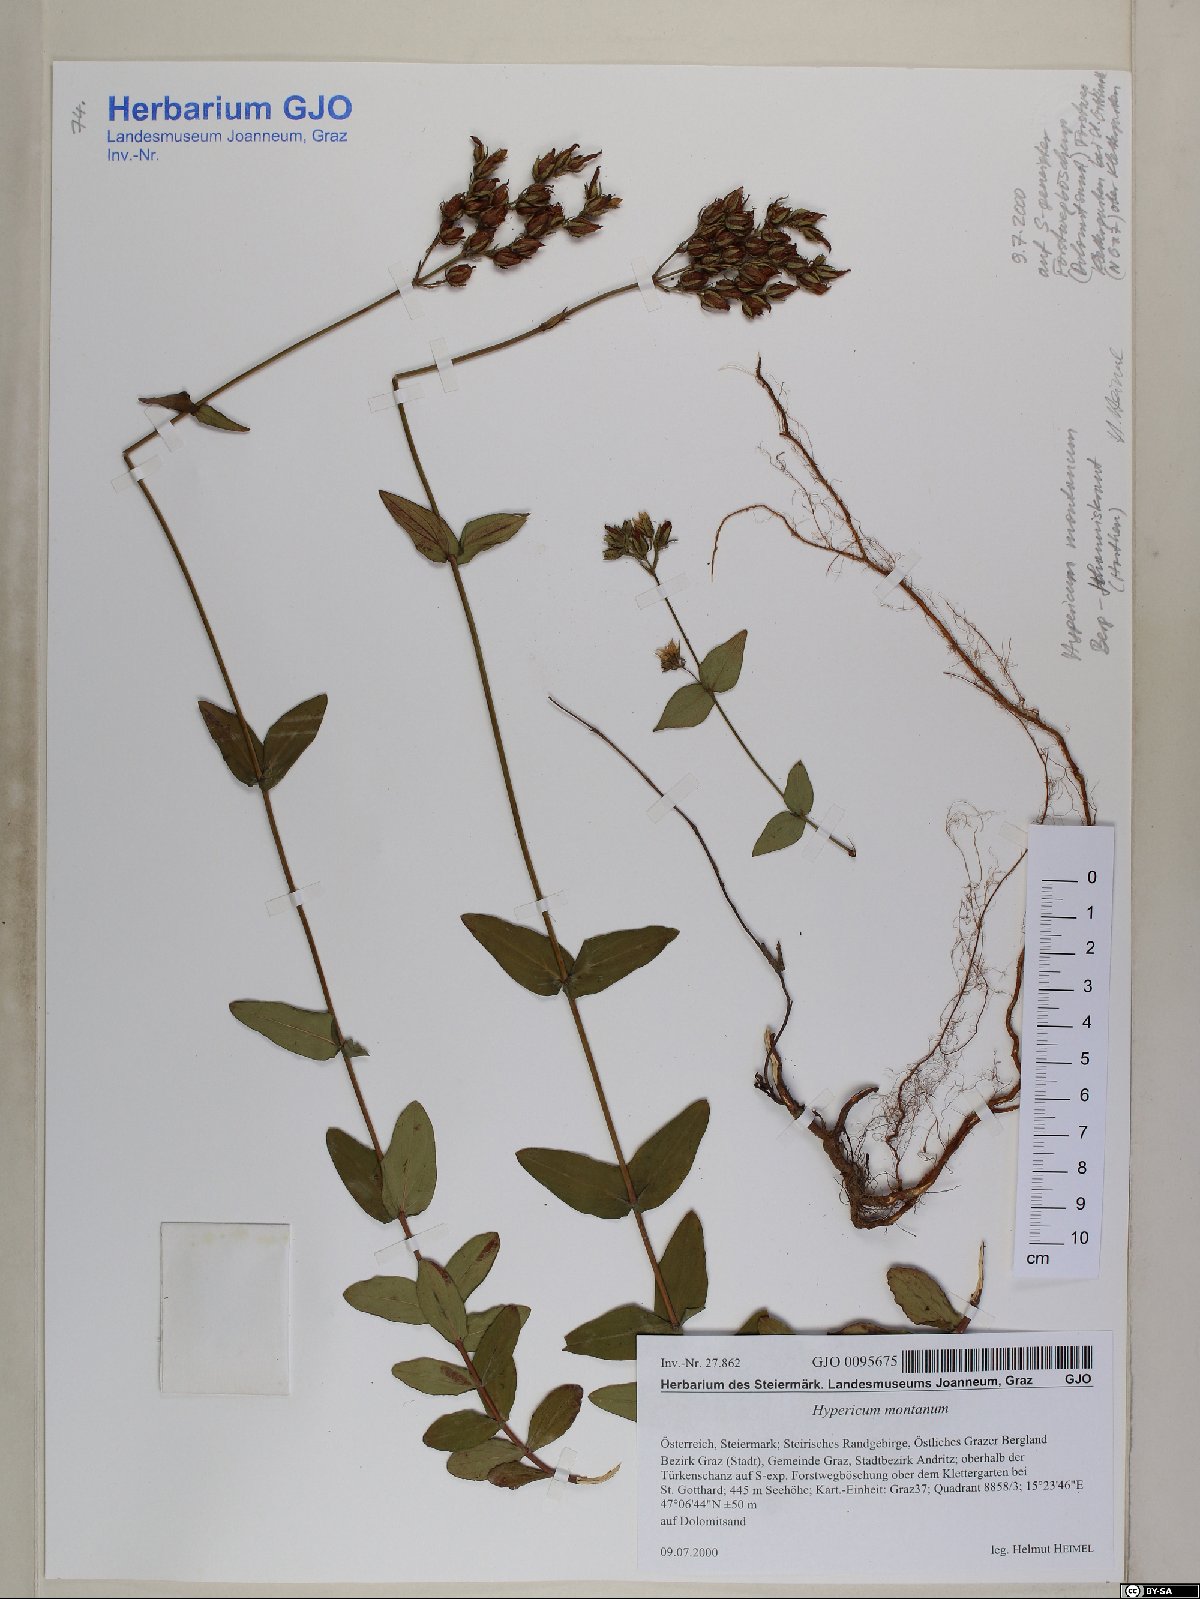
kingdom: Plantae
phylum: Tracheophyta
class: Magnoliopsida
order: Malpighiales
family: Hypericaceae
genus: Hypericum
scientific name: Hypericum montanum
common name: Pale st. john's-wort
